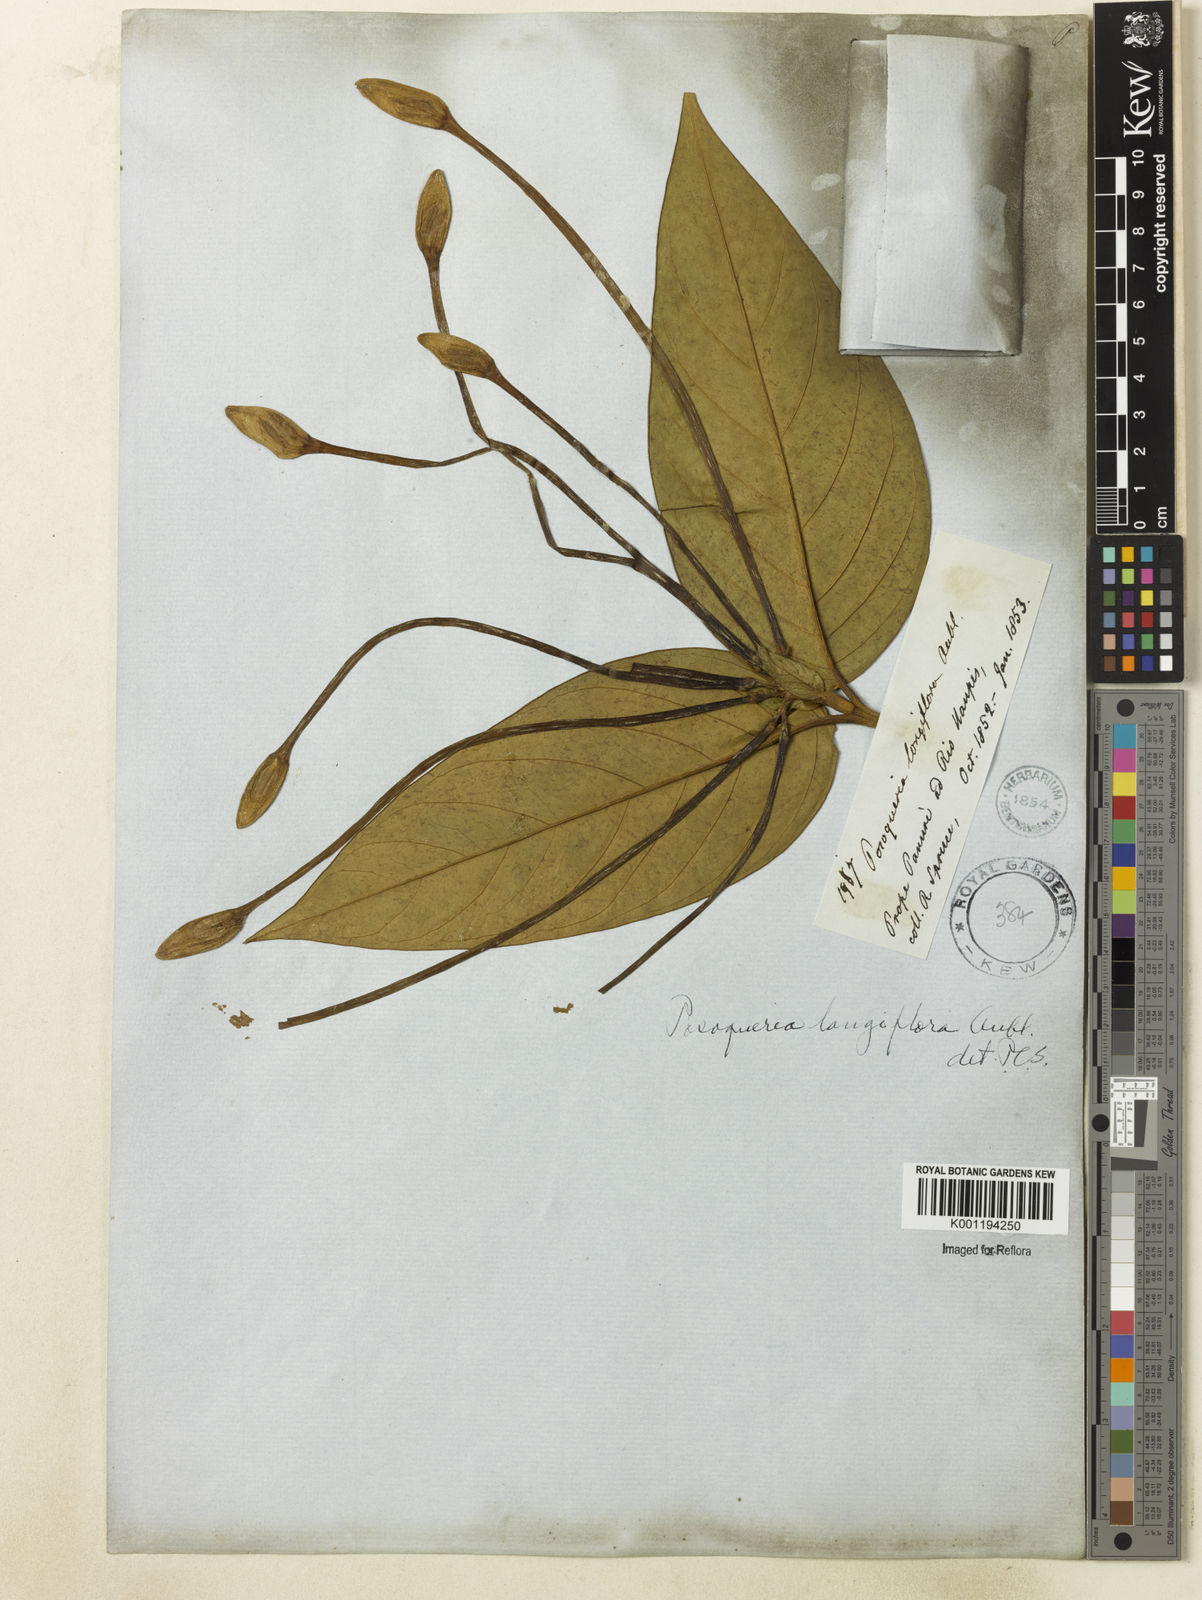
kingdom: Plantae
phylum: Tracheophyta
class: Magnoliopsida
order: Gentianales
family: Rubiaceae
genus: Posoqueria
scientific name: Posoqueria longiflora
